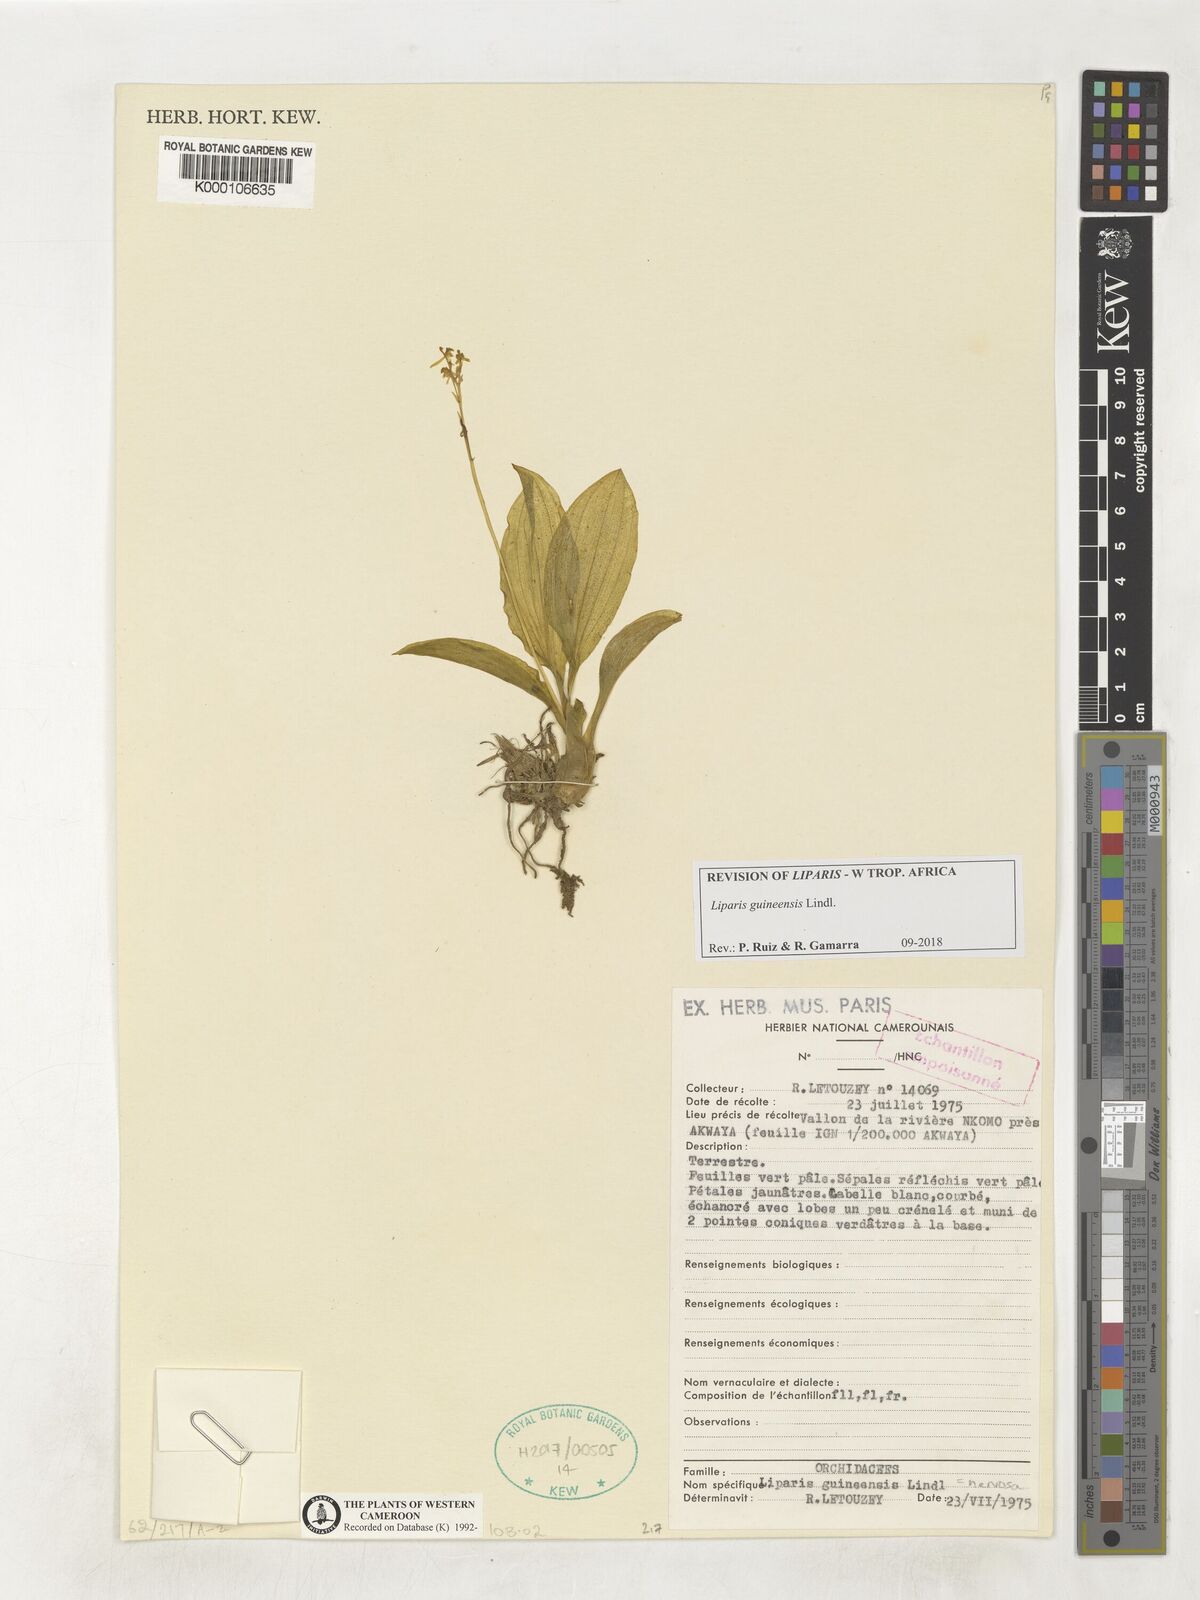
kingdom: Plantae
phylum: Tracheophyta
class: Liliopsida
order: Asparagales
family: Orchidaceae
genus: Liparis
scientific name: Liparis nervosa
